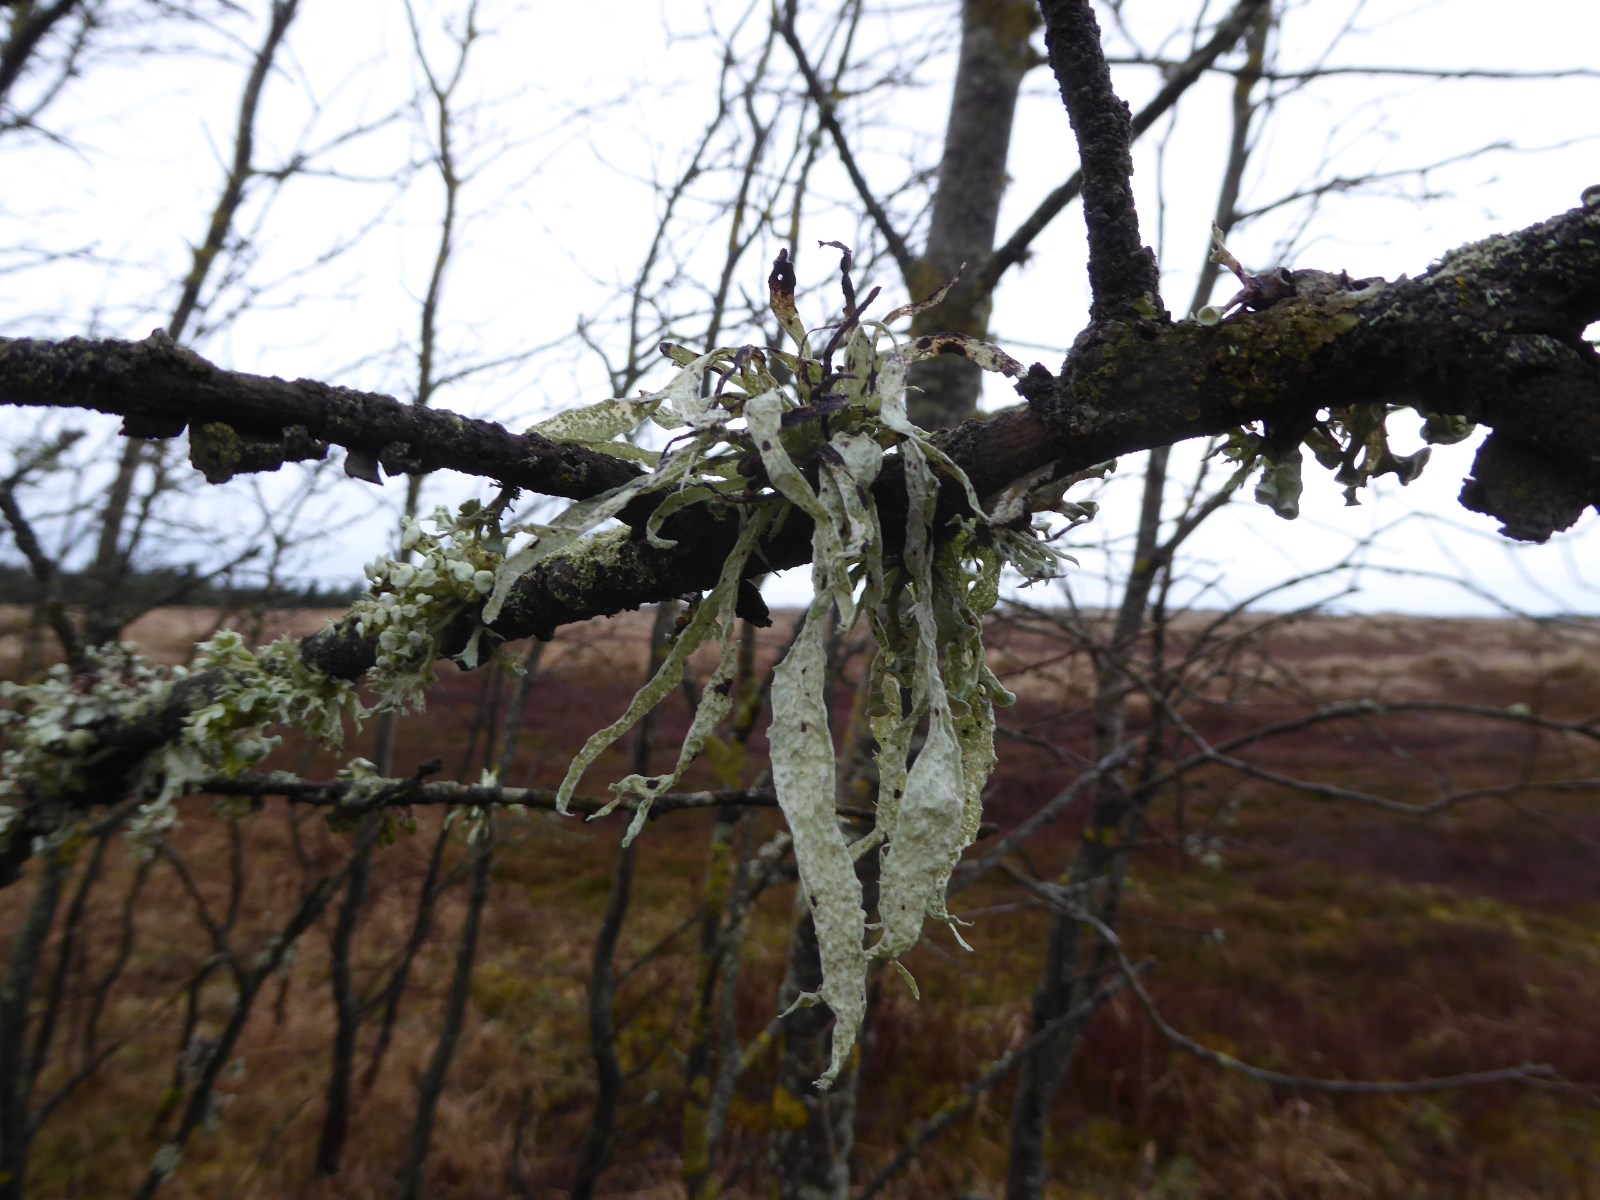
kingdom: Fungi
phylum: Ascomycota
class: Lecanoromycetes
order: Lecanorales
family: Ramalinaceae
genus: Ramalina
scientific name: Ramalina fraxinea
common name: stor grenlav
